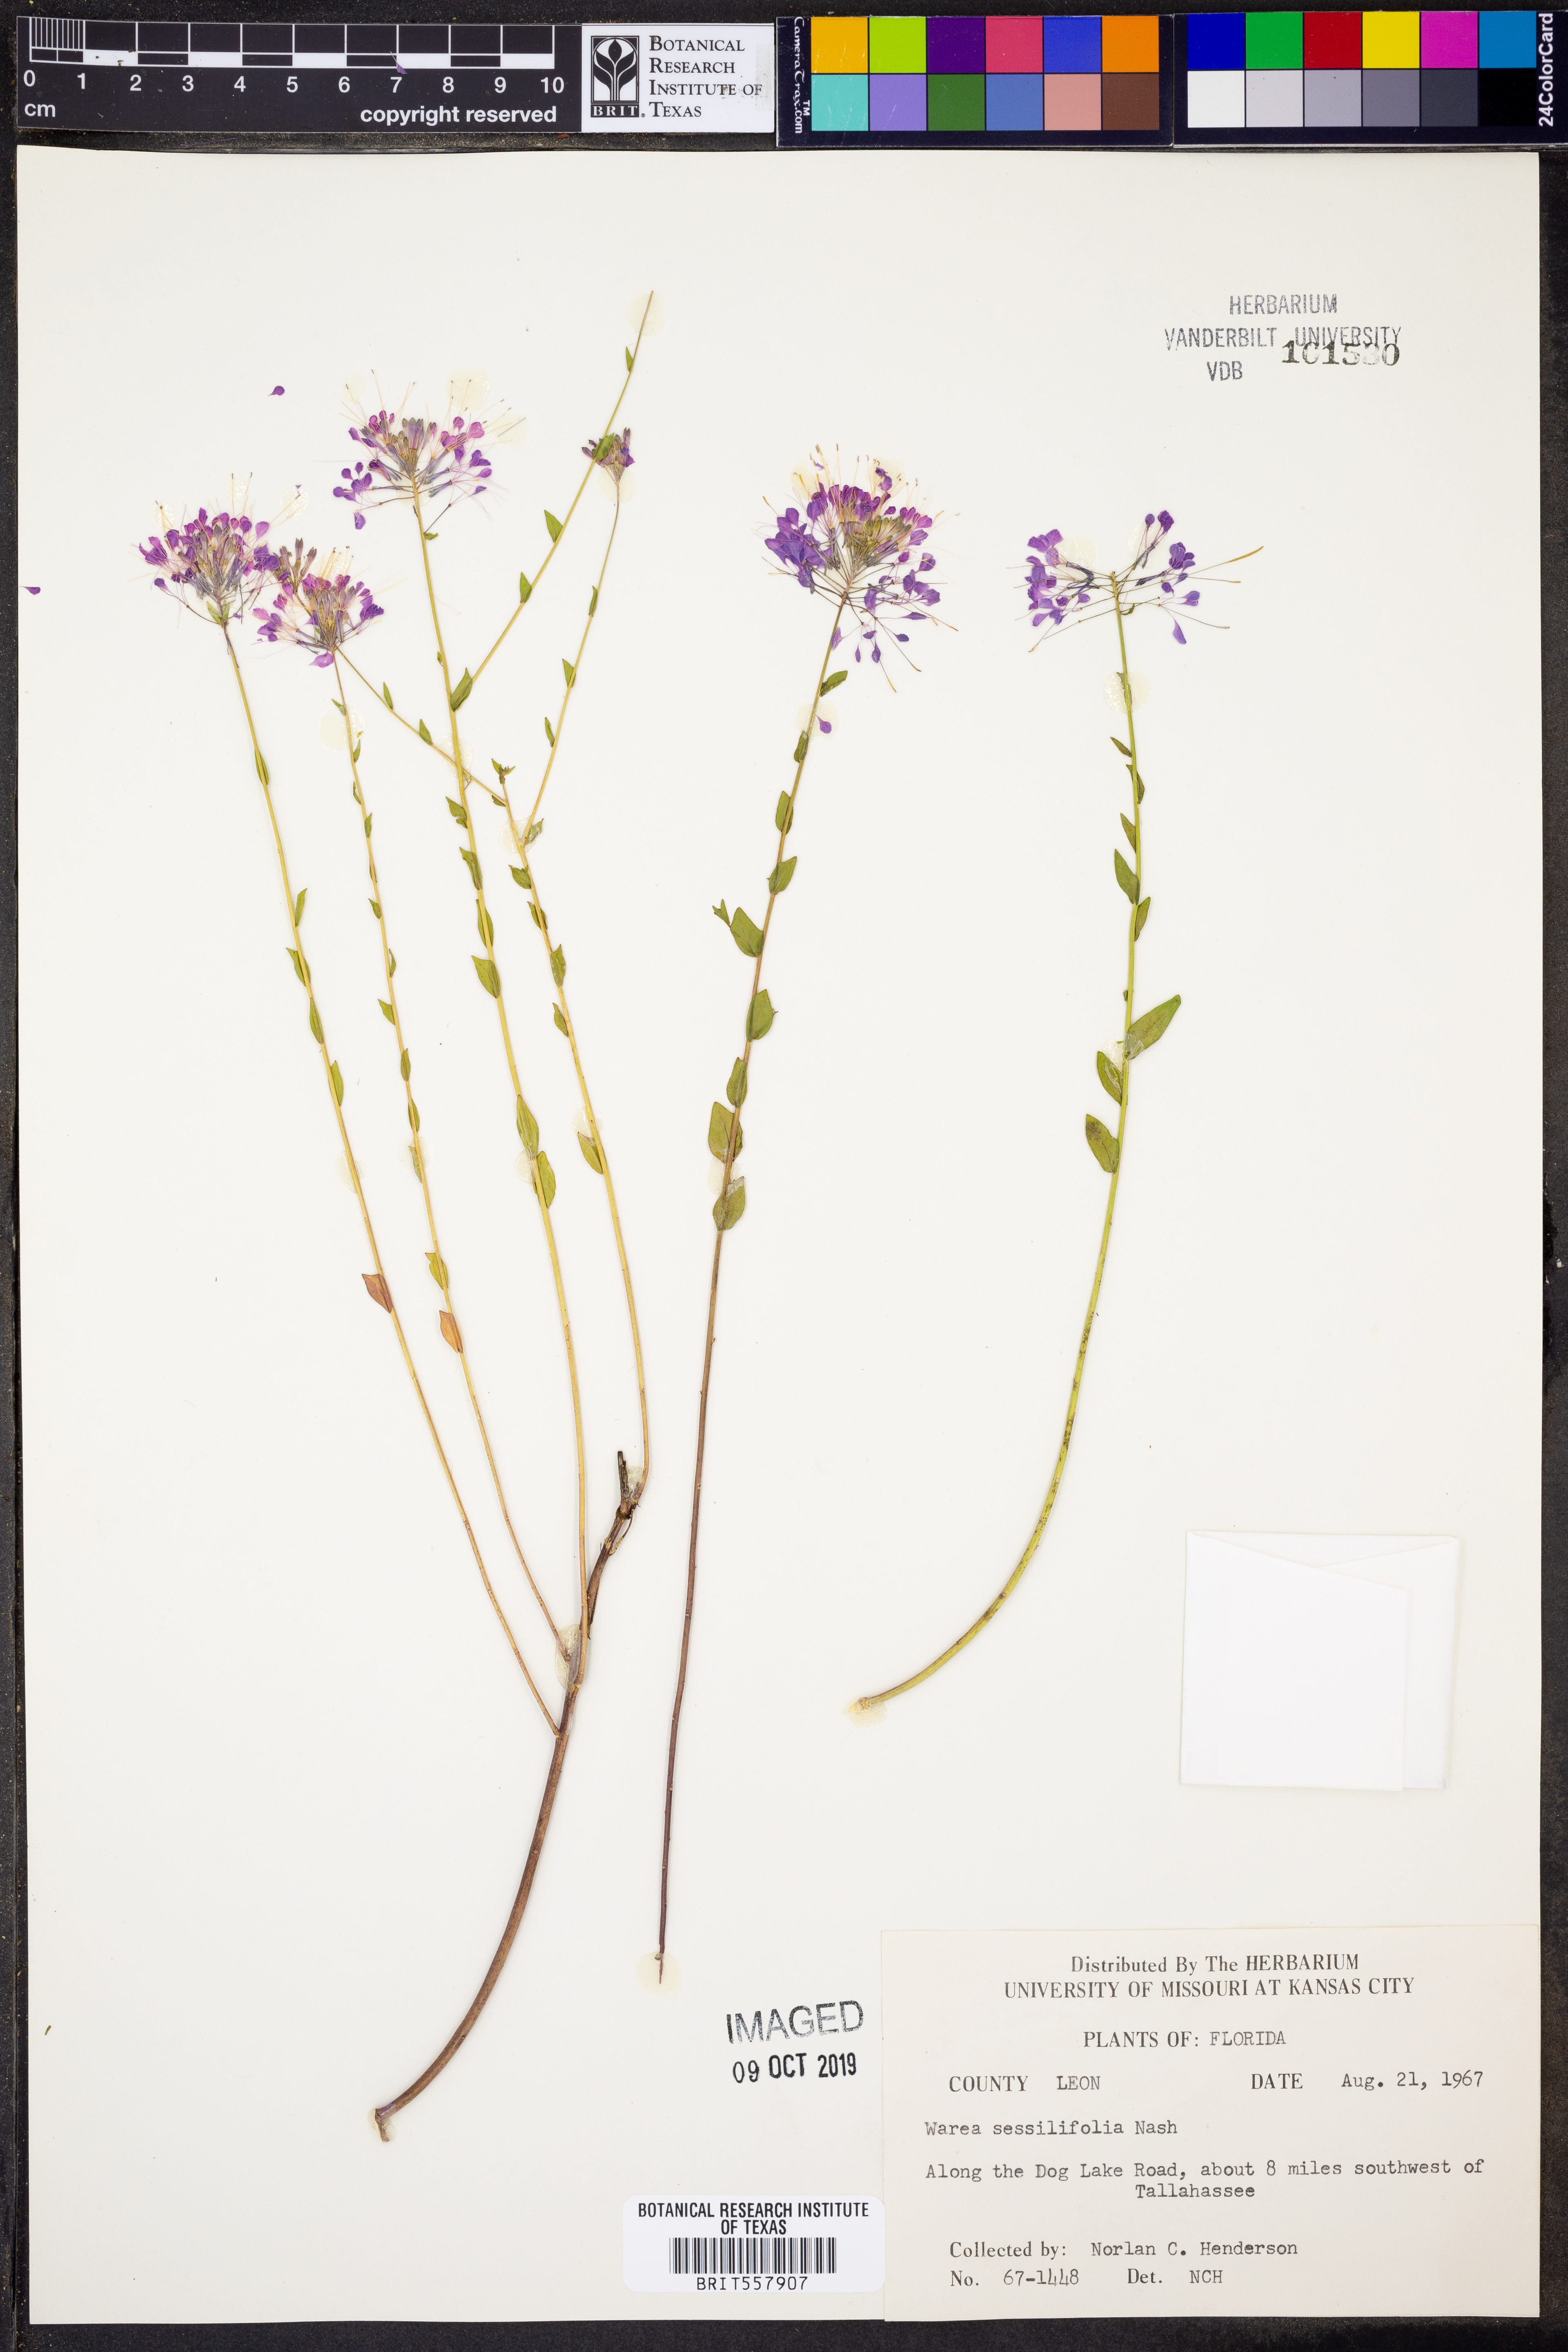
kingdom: Plantae
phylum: Tracheophyta
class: Magnoliopsida
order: Brassicales
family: Brassicaceae
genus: Warea
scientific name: Warea sessilifolia
